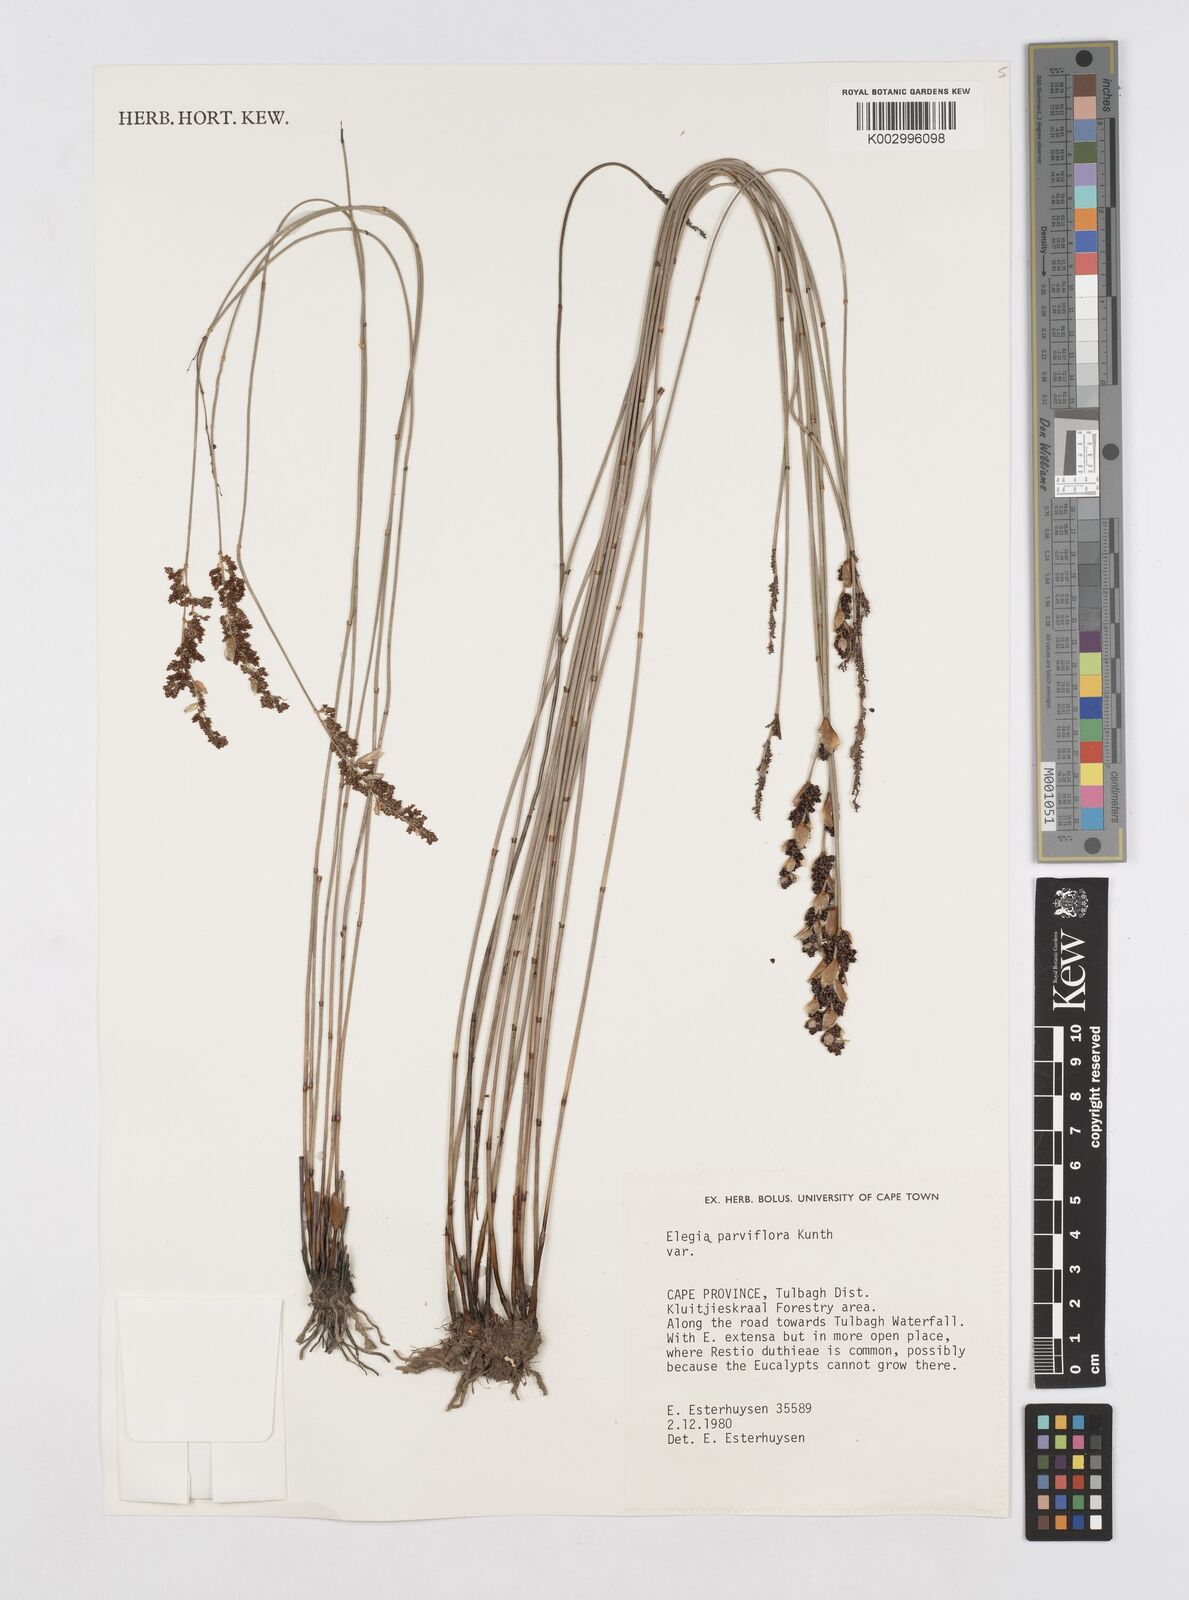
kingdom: Plantae
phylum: Tracheophyta
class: Liliopsida
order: Poales
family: Restionaceae
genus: Cannomois
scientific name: Cannomois parviflora
